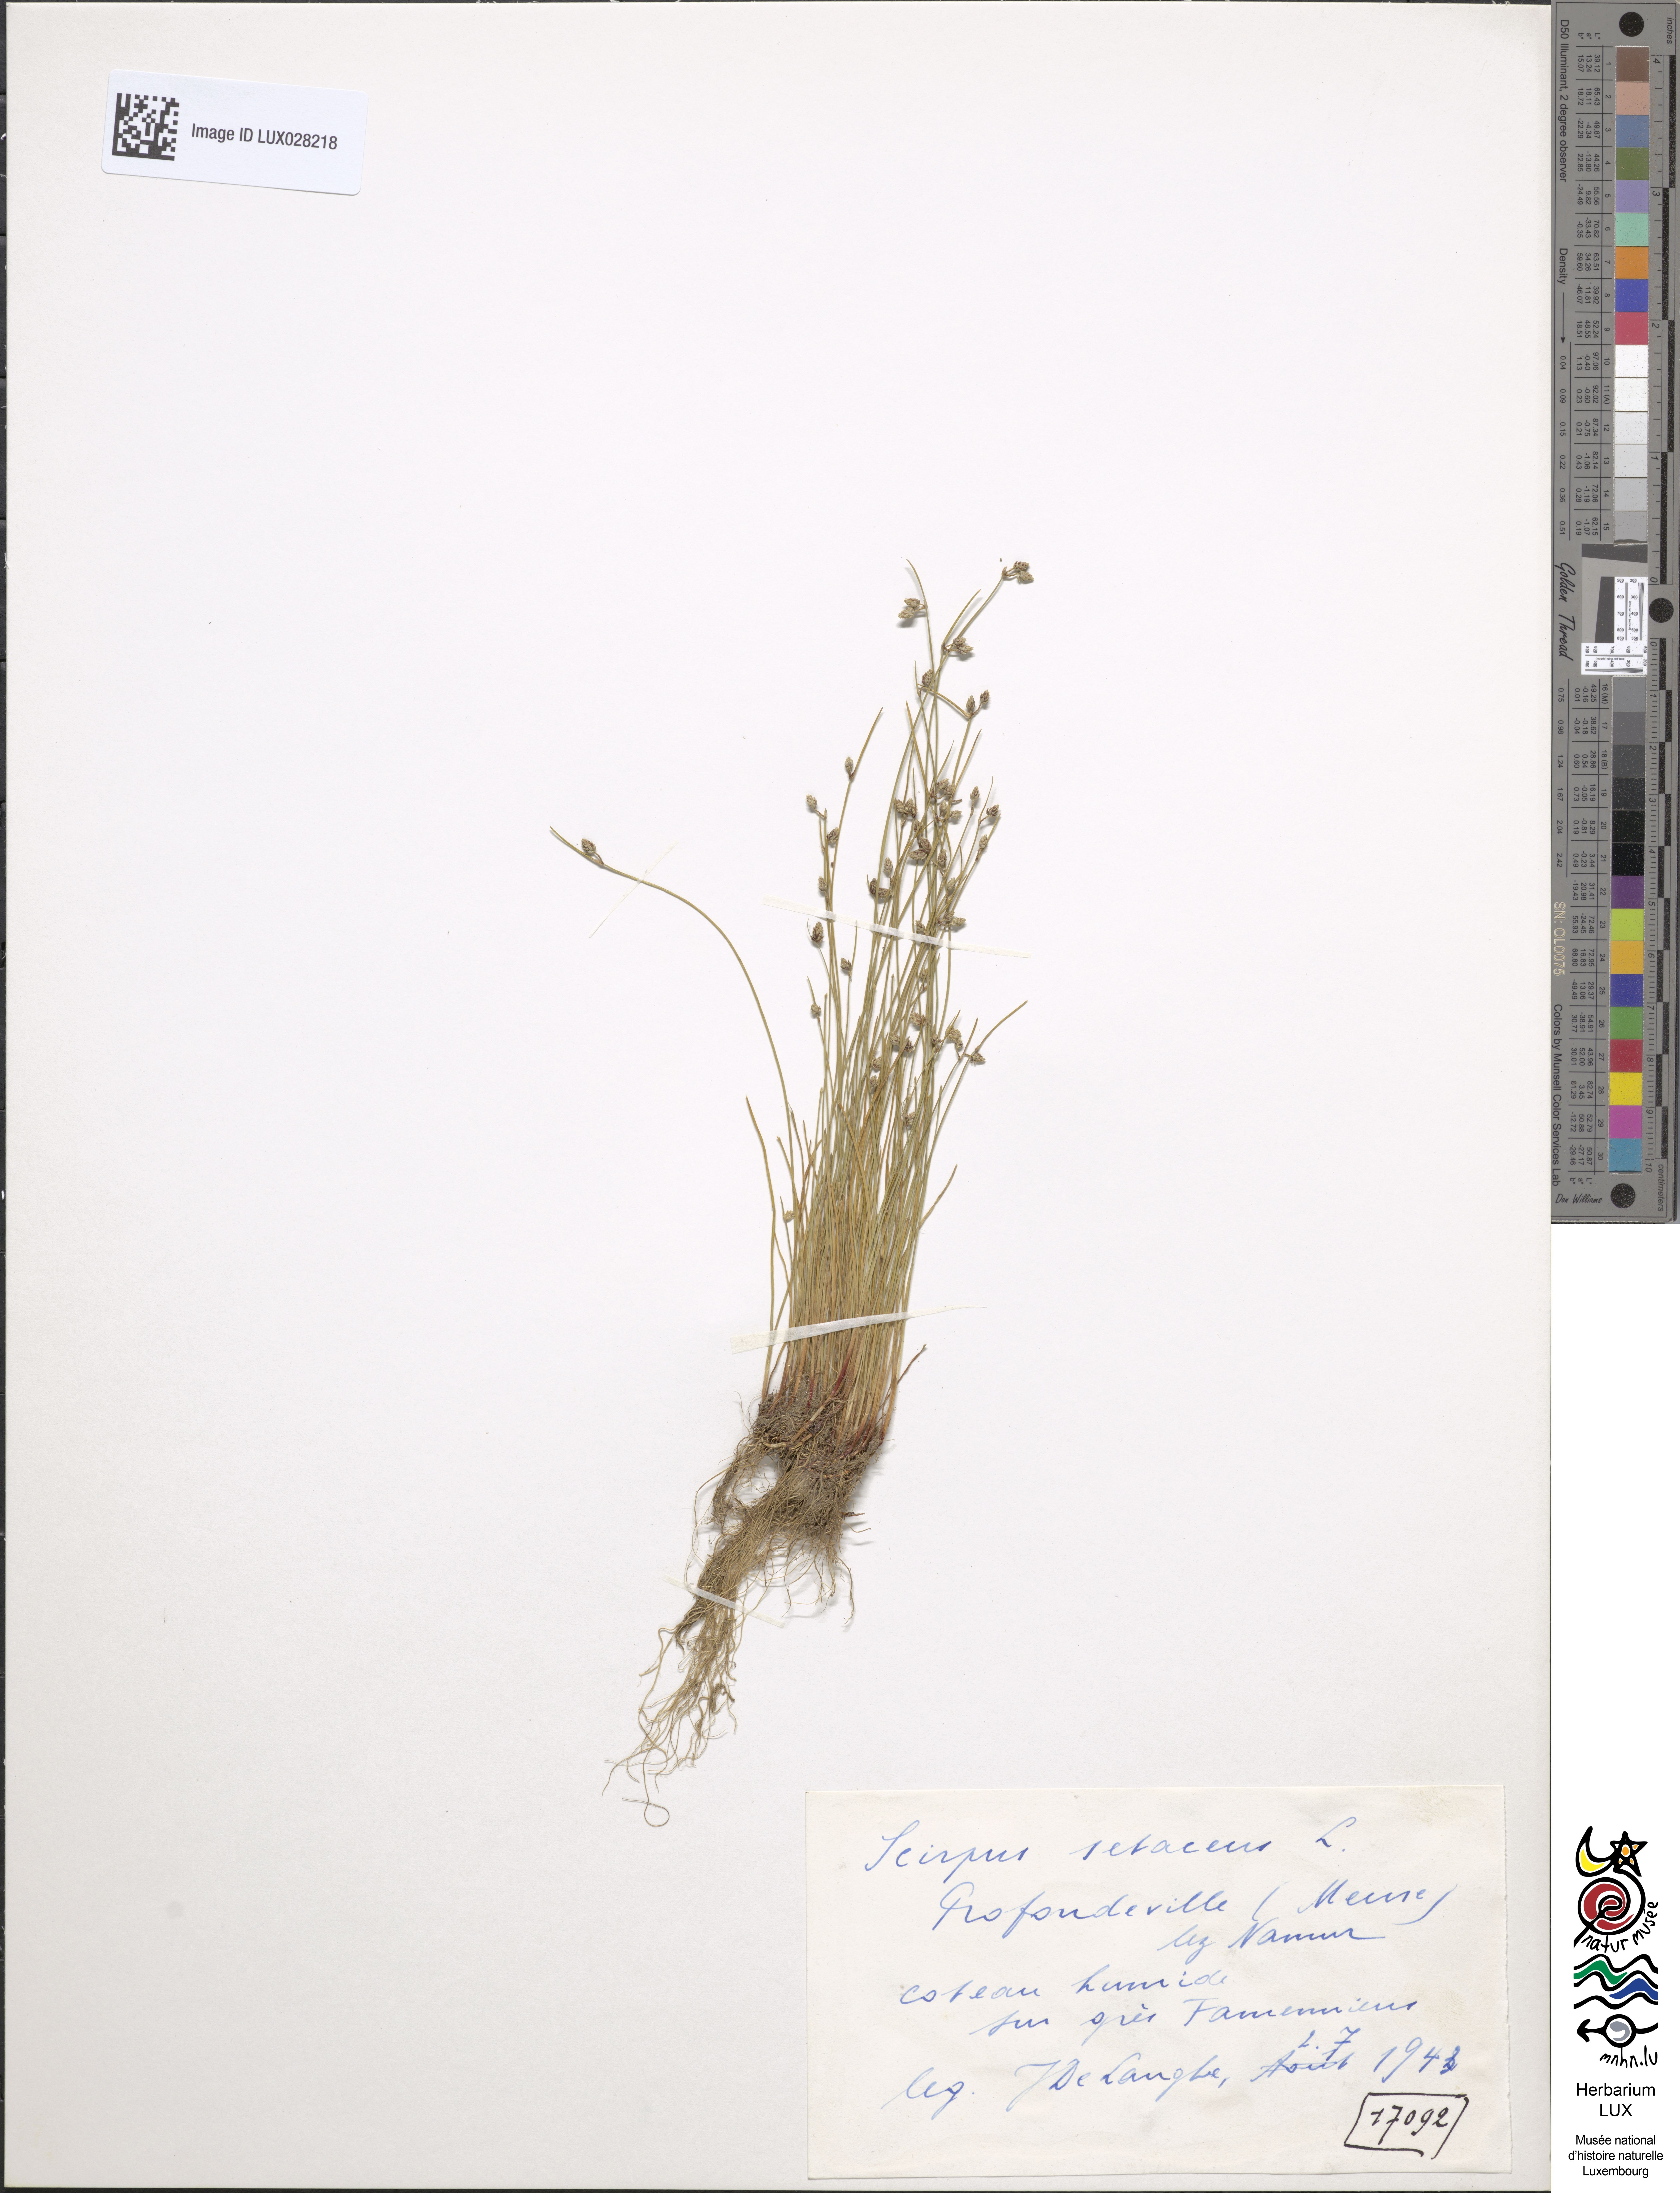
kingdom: Plantae
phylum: Tracheophyta
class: Liliopsida
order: Poales
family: Cyperaceae
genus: Isolepis
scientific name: Isolepis setacea
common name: Bristle club-rush
